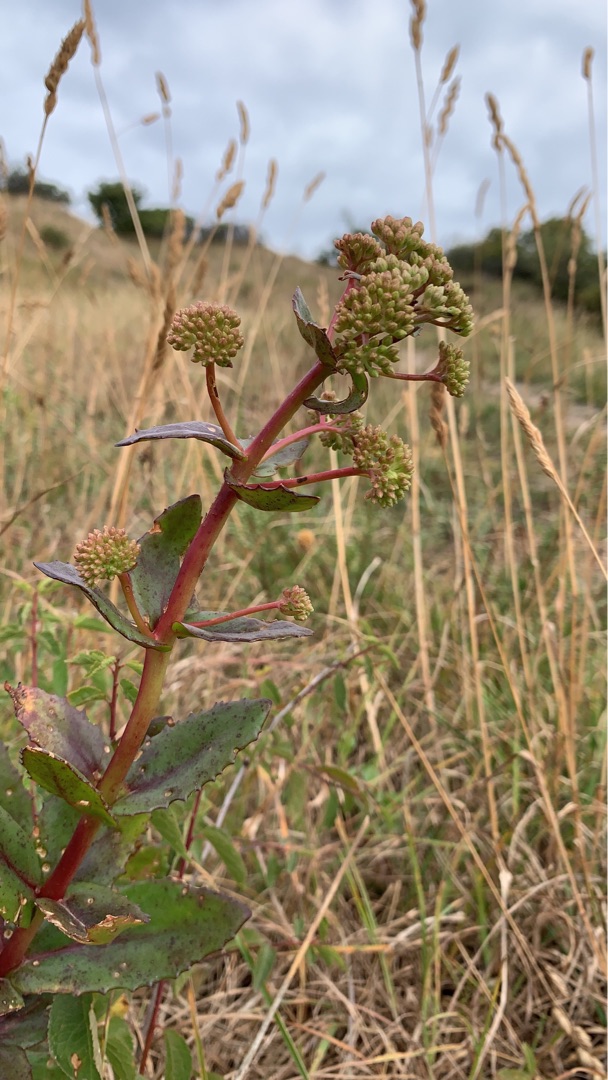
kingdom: Plantae
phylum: Tracheophyta
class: Magnoliopsida
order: Saxifragales
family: Crassulaceae
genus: Hylotelephium
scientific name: Hylotelephium maximum
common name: Almindelig sankthansurt
